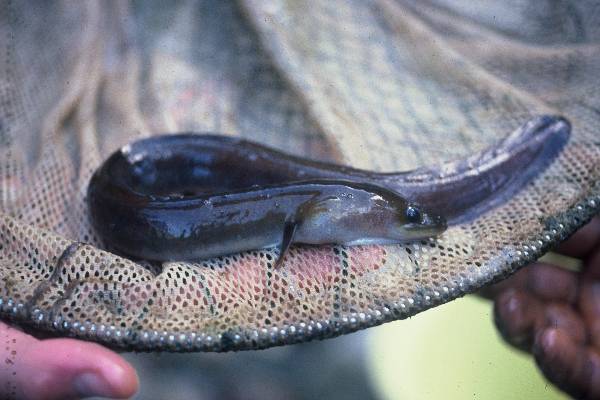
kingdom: Animalia
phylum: Chordata
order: Anguilliformes
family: Anguillidae
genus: Anguilla
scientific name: Anguilla mossambica
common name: African longfin eel
